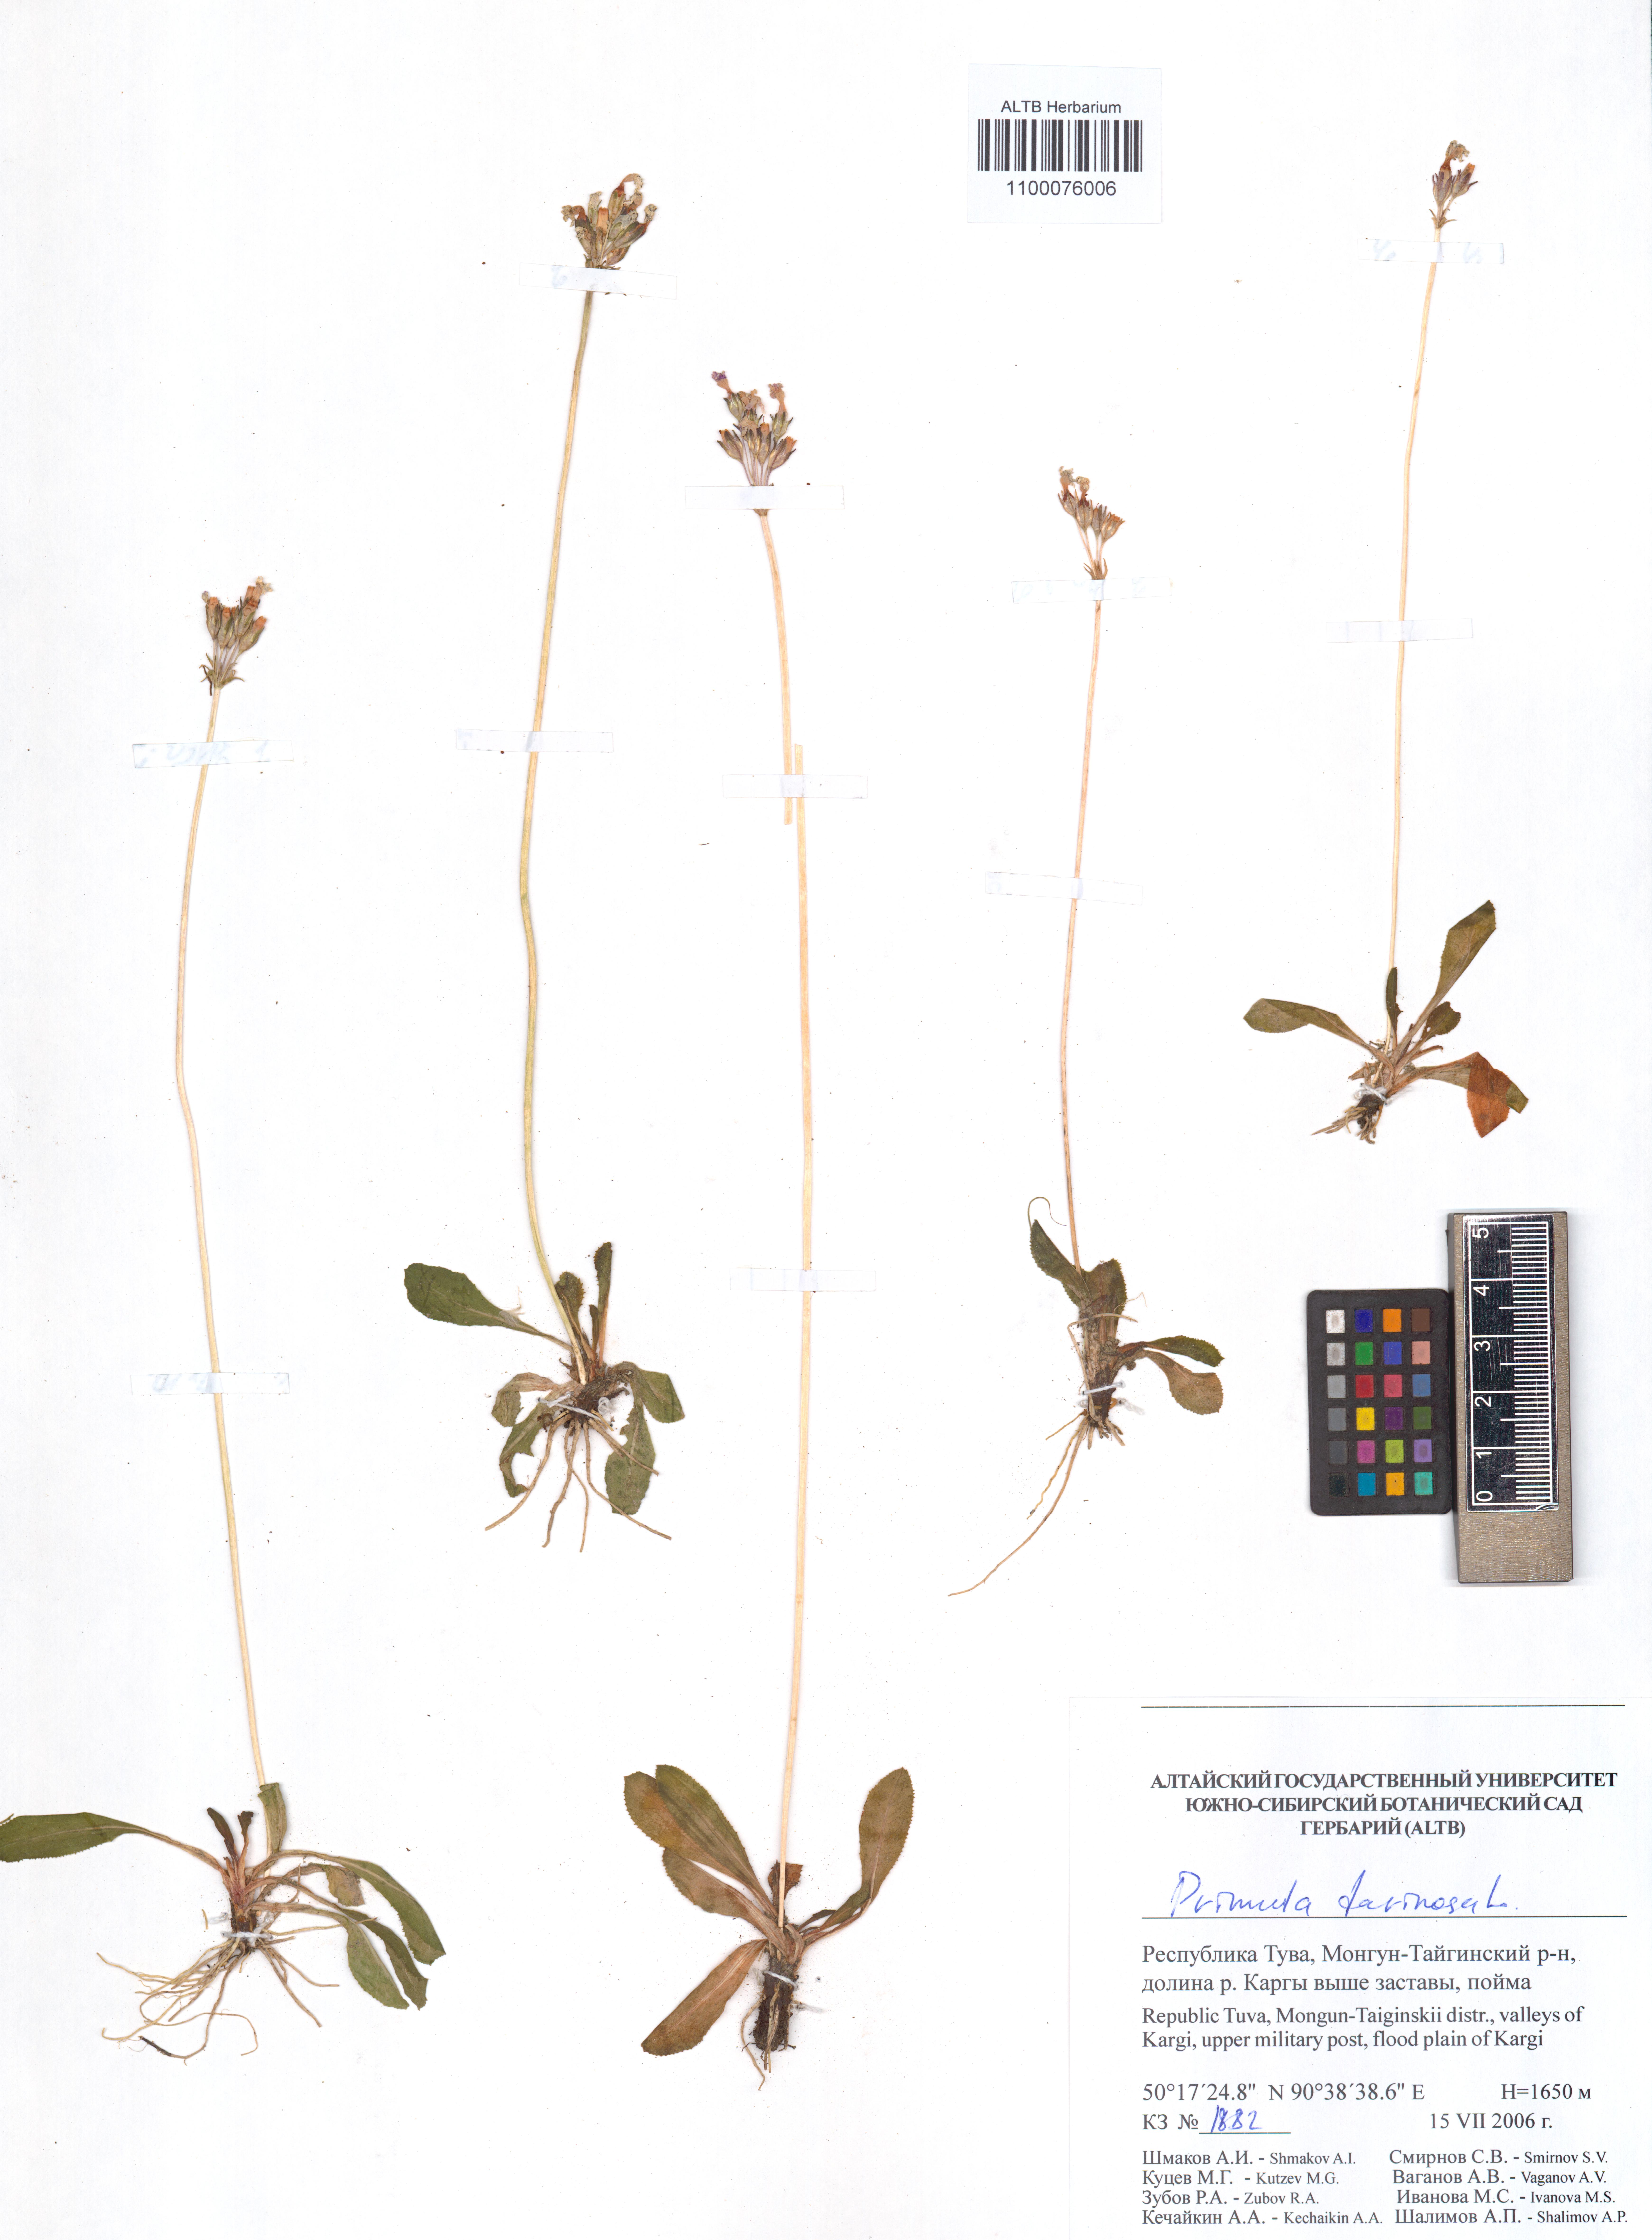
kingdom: Plantae
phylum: Tracheophyta
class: Magnoliopsida
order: Ericales
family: Primulaceae
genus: Primula
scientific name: Primula farinosa
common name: Bird's-eye primrose
